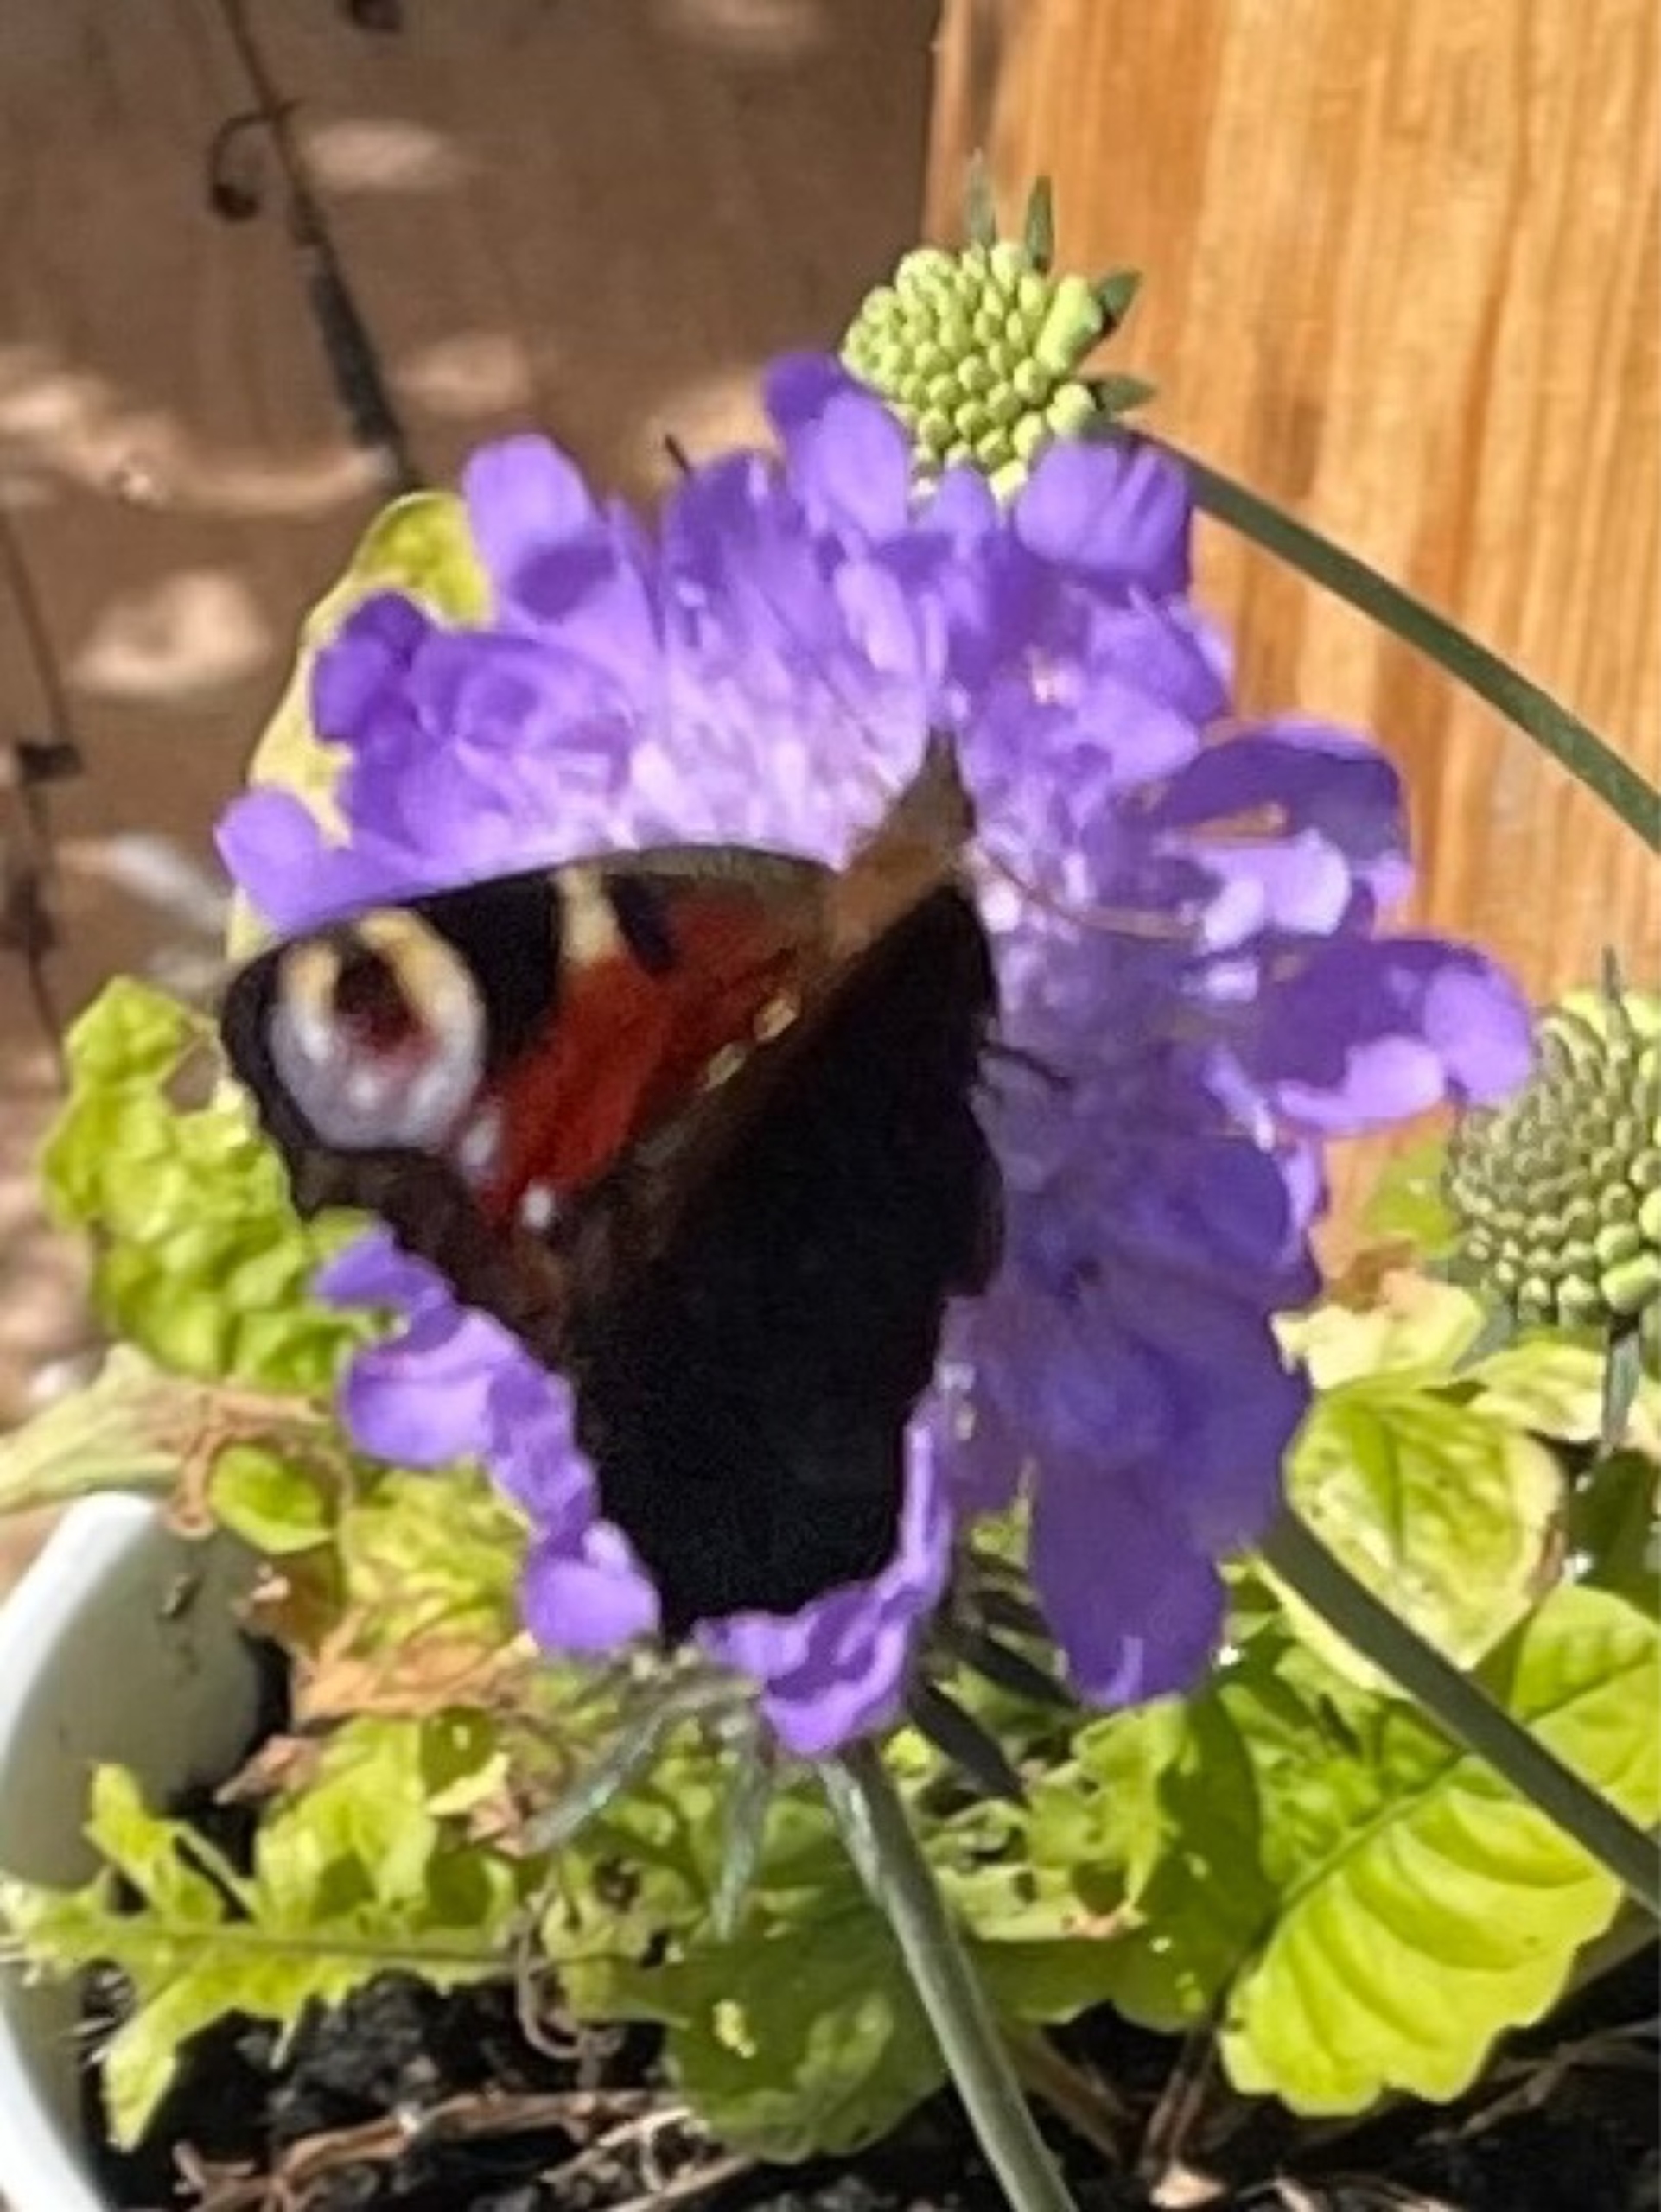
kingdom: Animalia
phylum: Arthropoda
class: Insecta
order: Lepidoptera
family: Nymphalidae
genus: Aglais
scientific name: Aglais io
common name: Dagpåfugleøje
